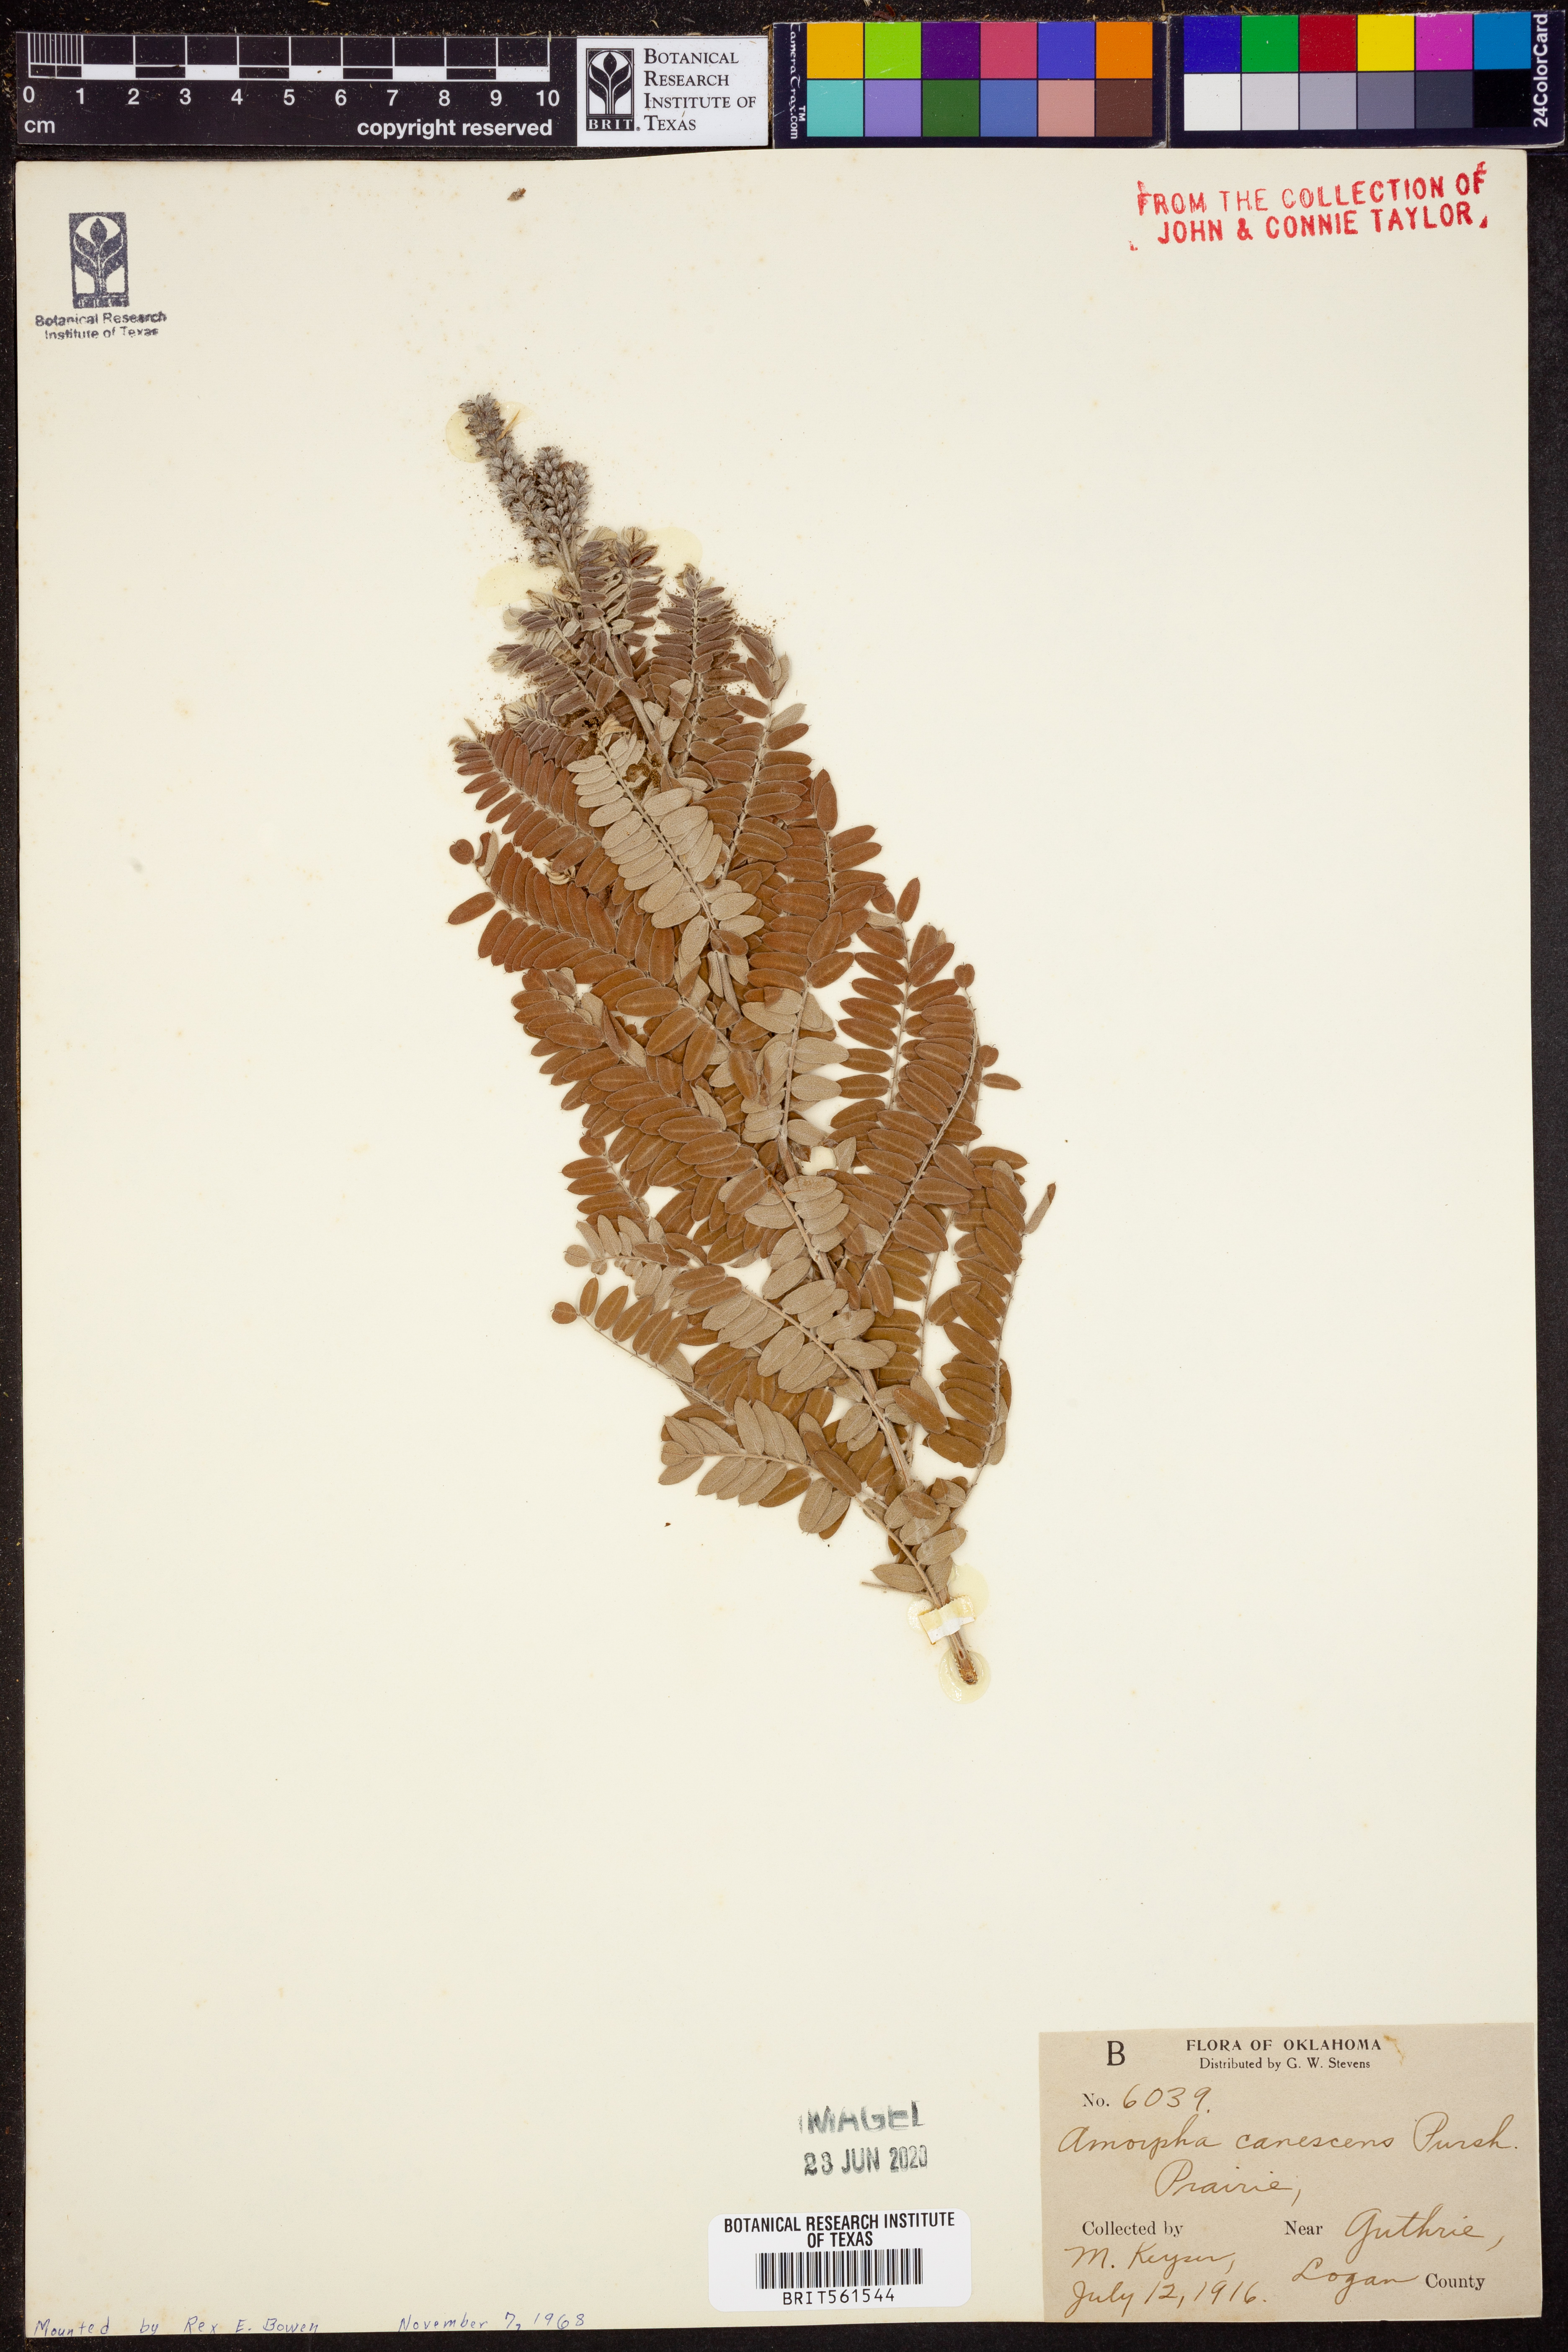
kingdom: Plantae
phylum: Tracheophyta
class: Magnoliopsida
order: Fabales
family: Fabaceae
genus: Amorpha
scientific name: Amorpha canescens
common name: Leadplant
